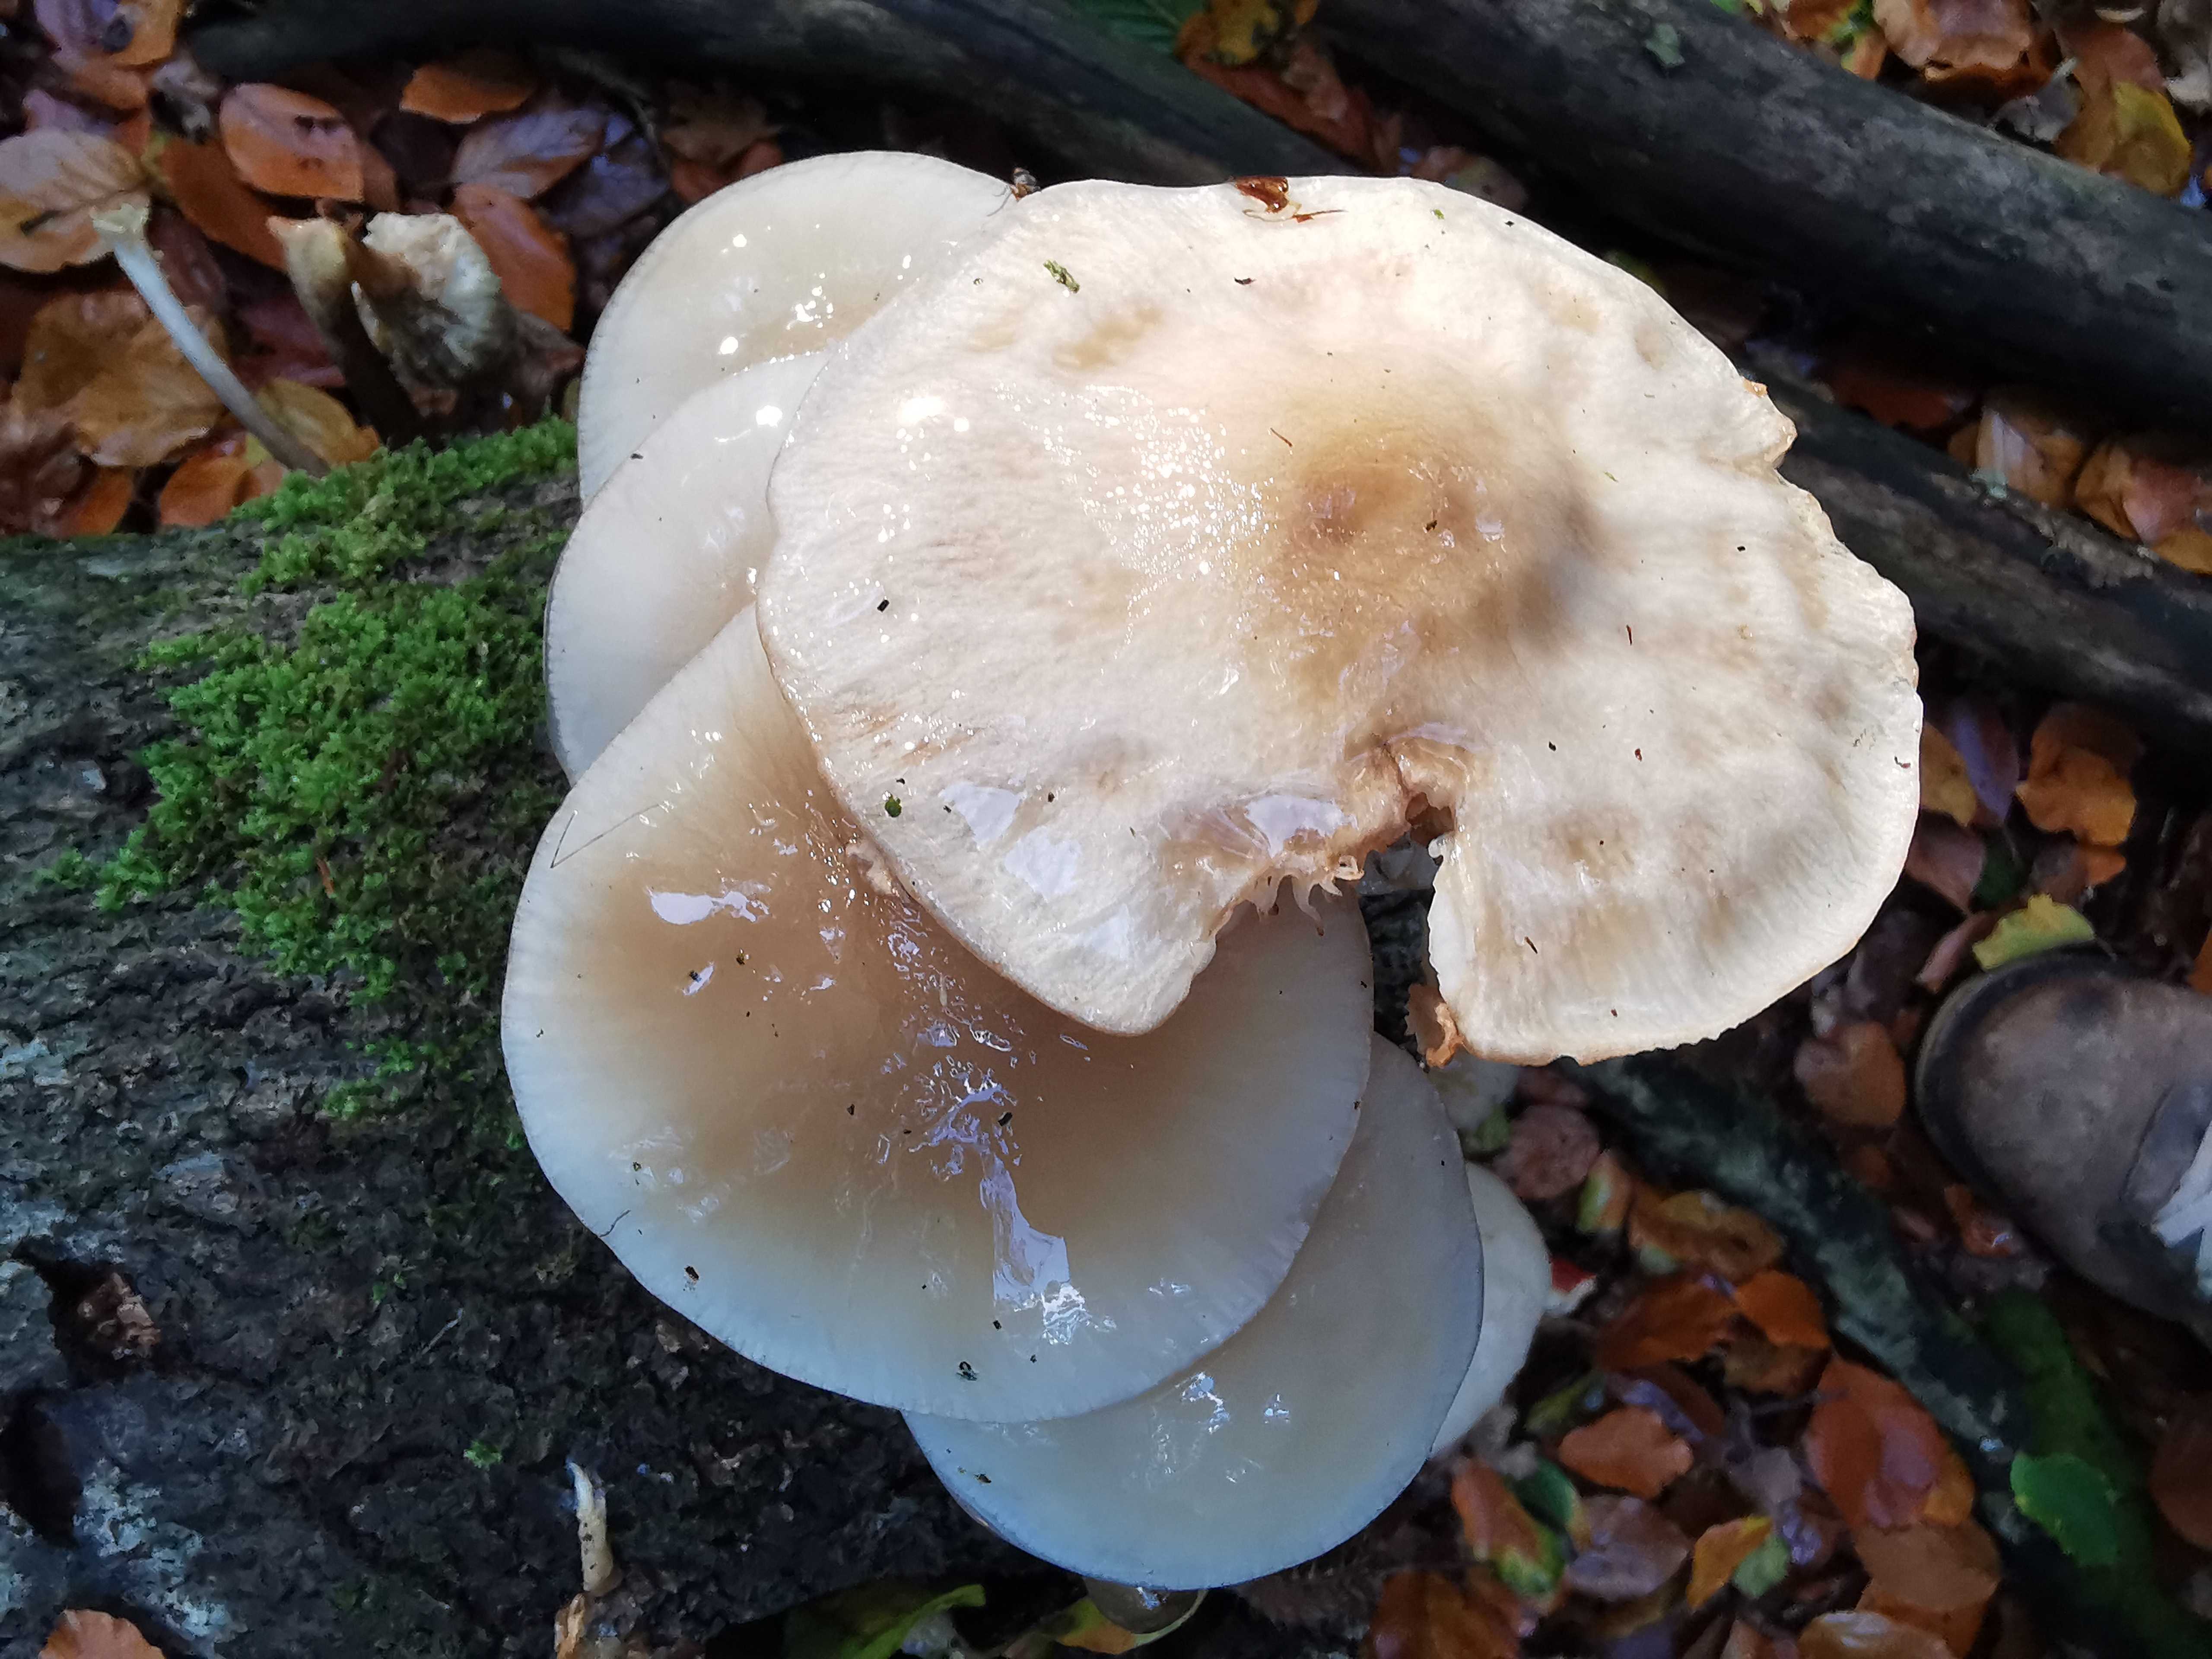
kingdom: Fungi
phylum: Basidiomycota
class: Agaricomycetes
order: Agaricales
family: Physalacriaceae
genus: Mucidula
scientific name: Mucidula mucida
